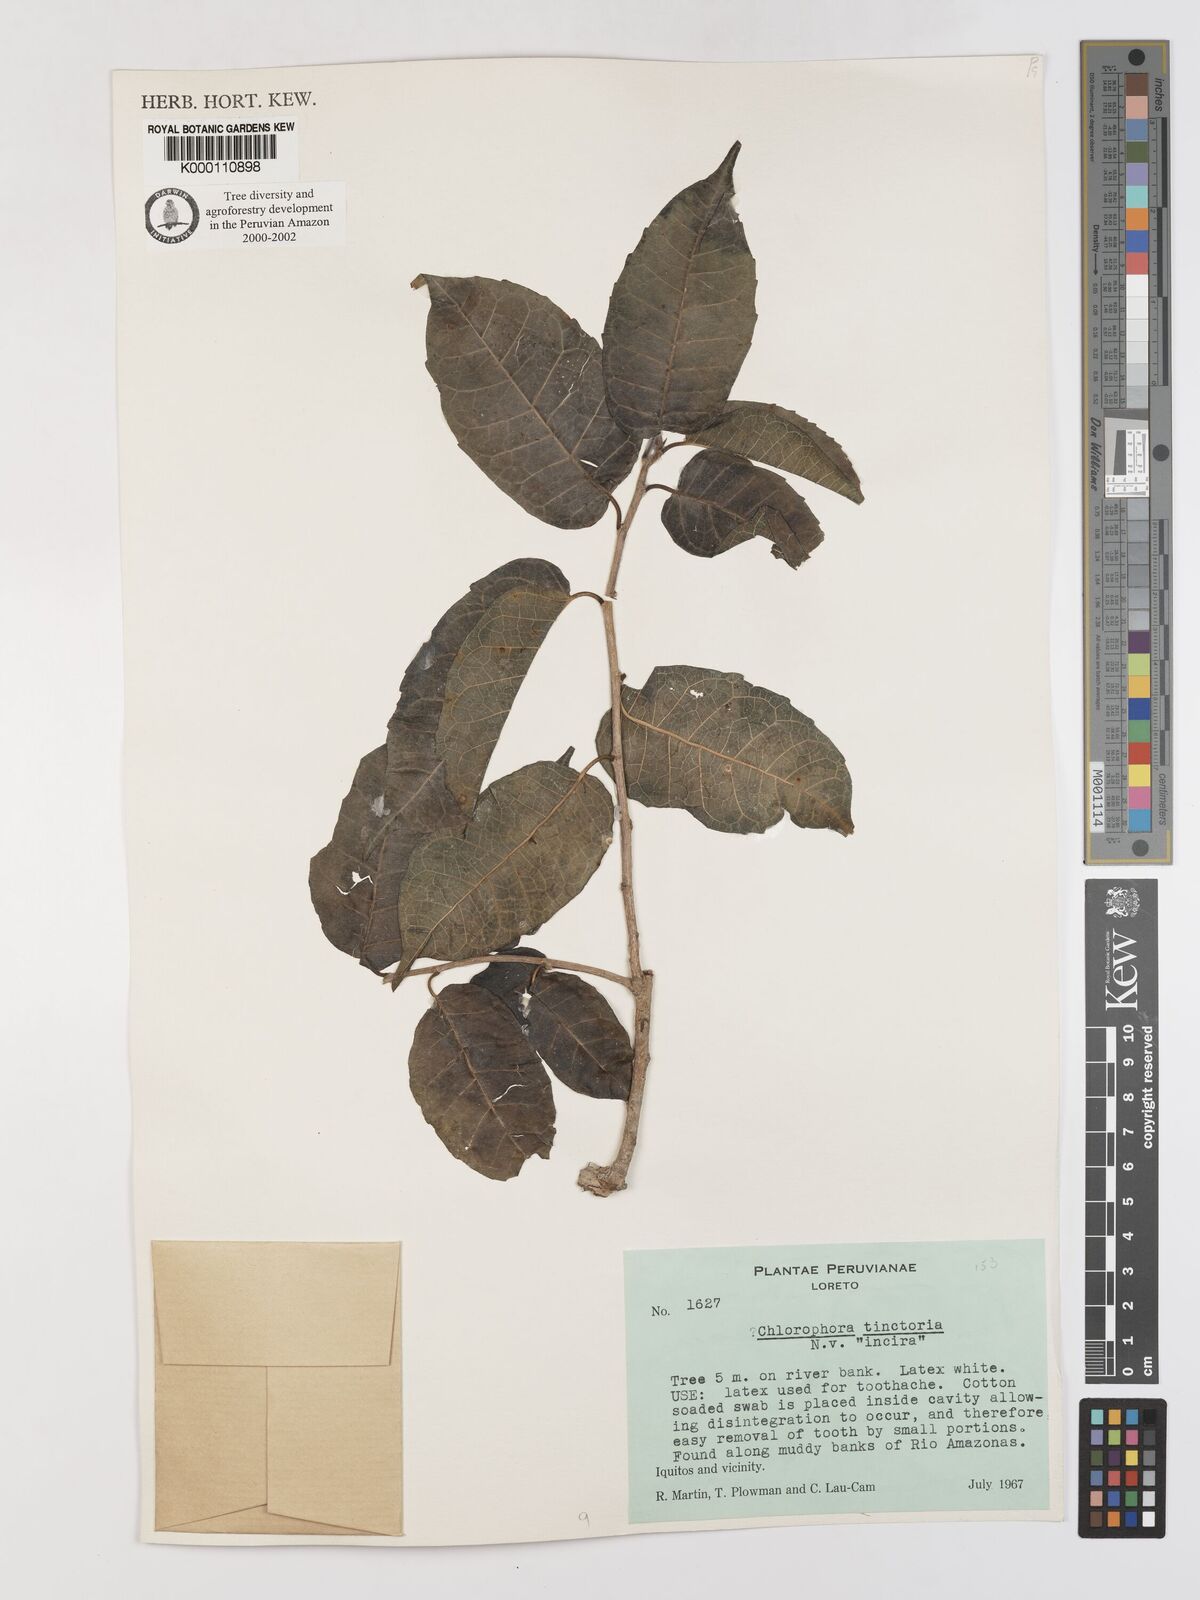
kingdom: Plantae
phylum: Tracheophyta
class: Magnoliopsida
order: Rosales
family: Moraceae
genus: Maclura
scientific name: Maclura tinctoria
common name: Old fustic
